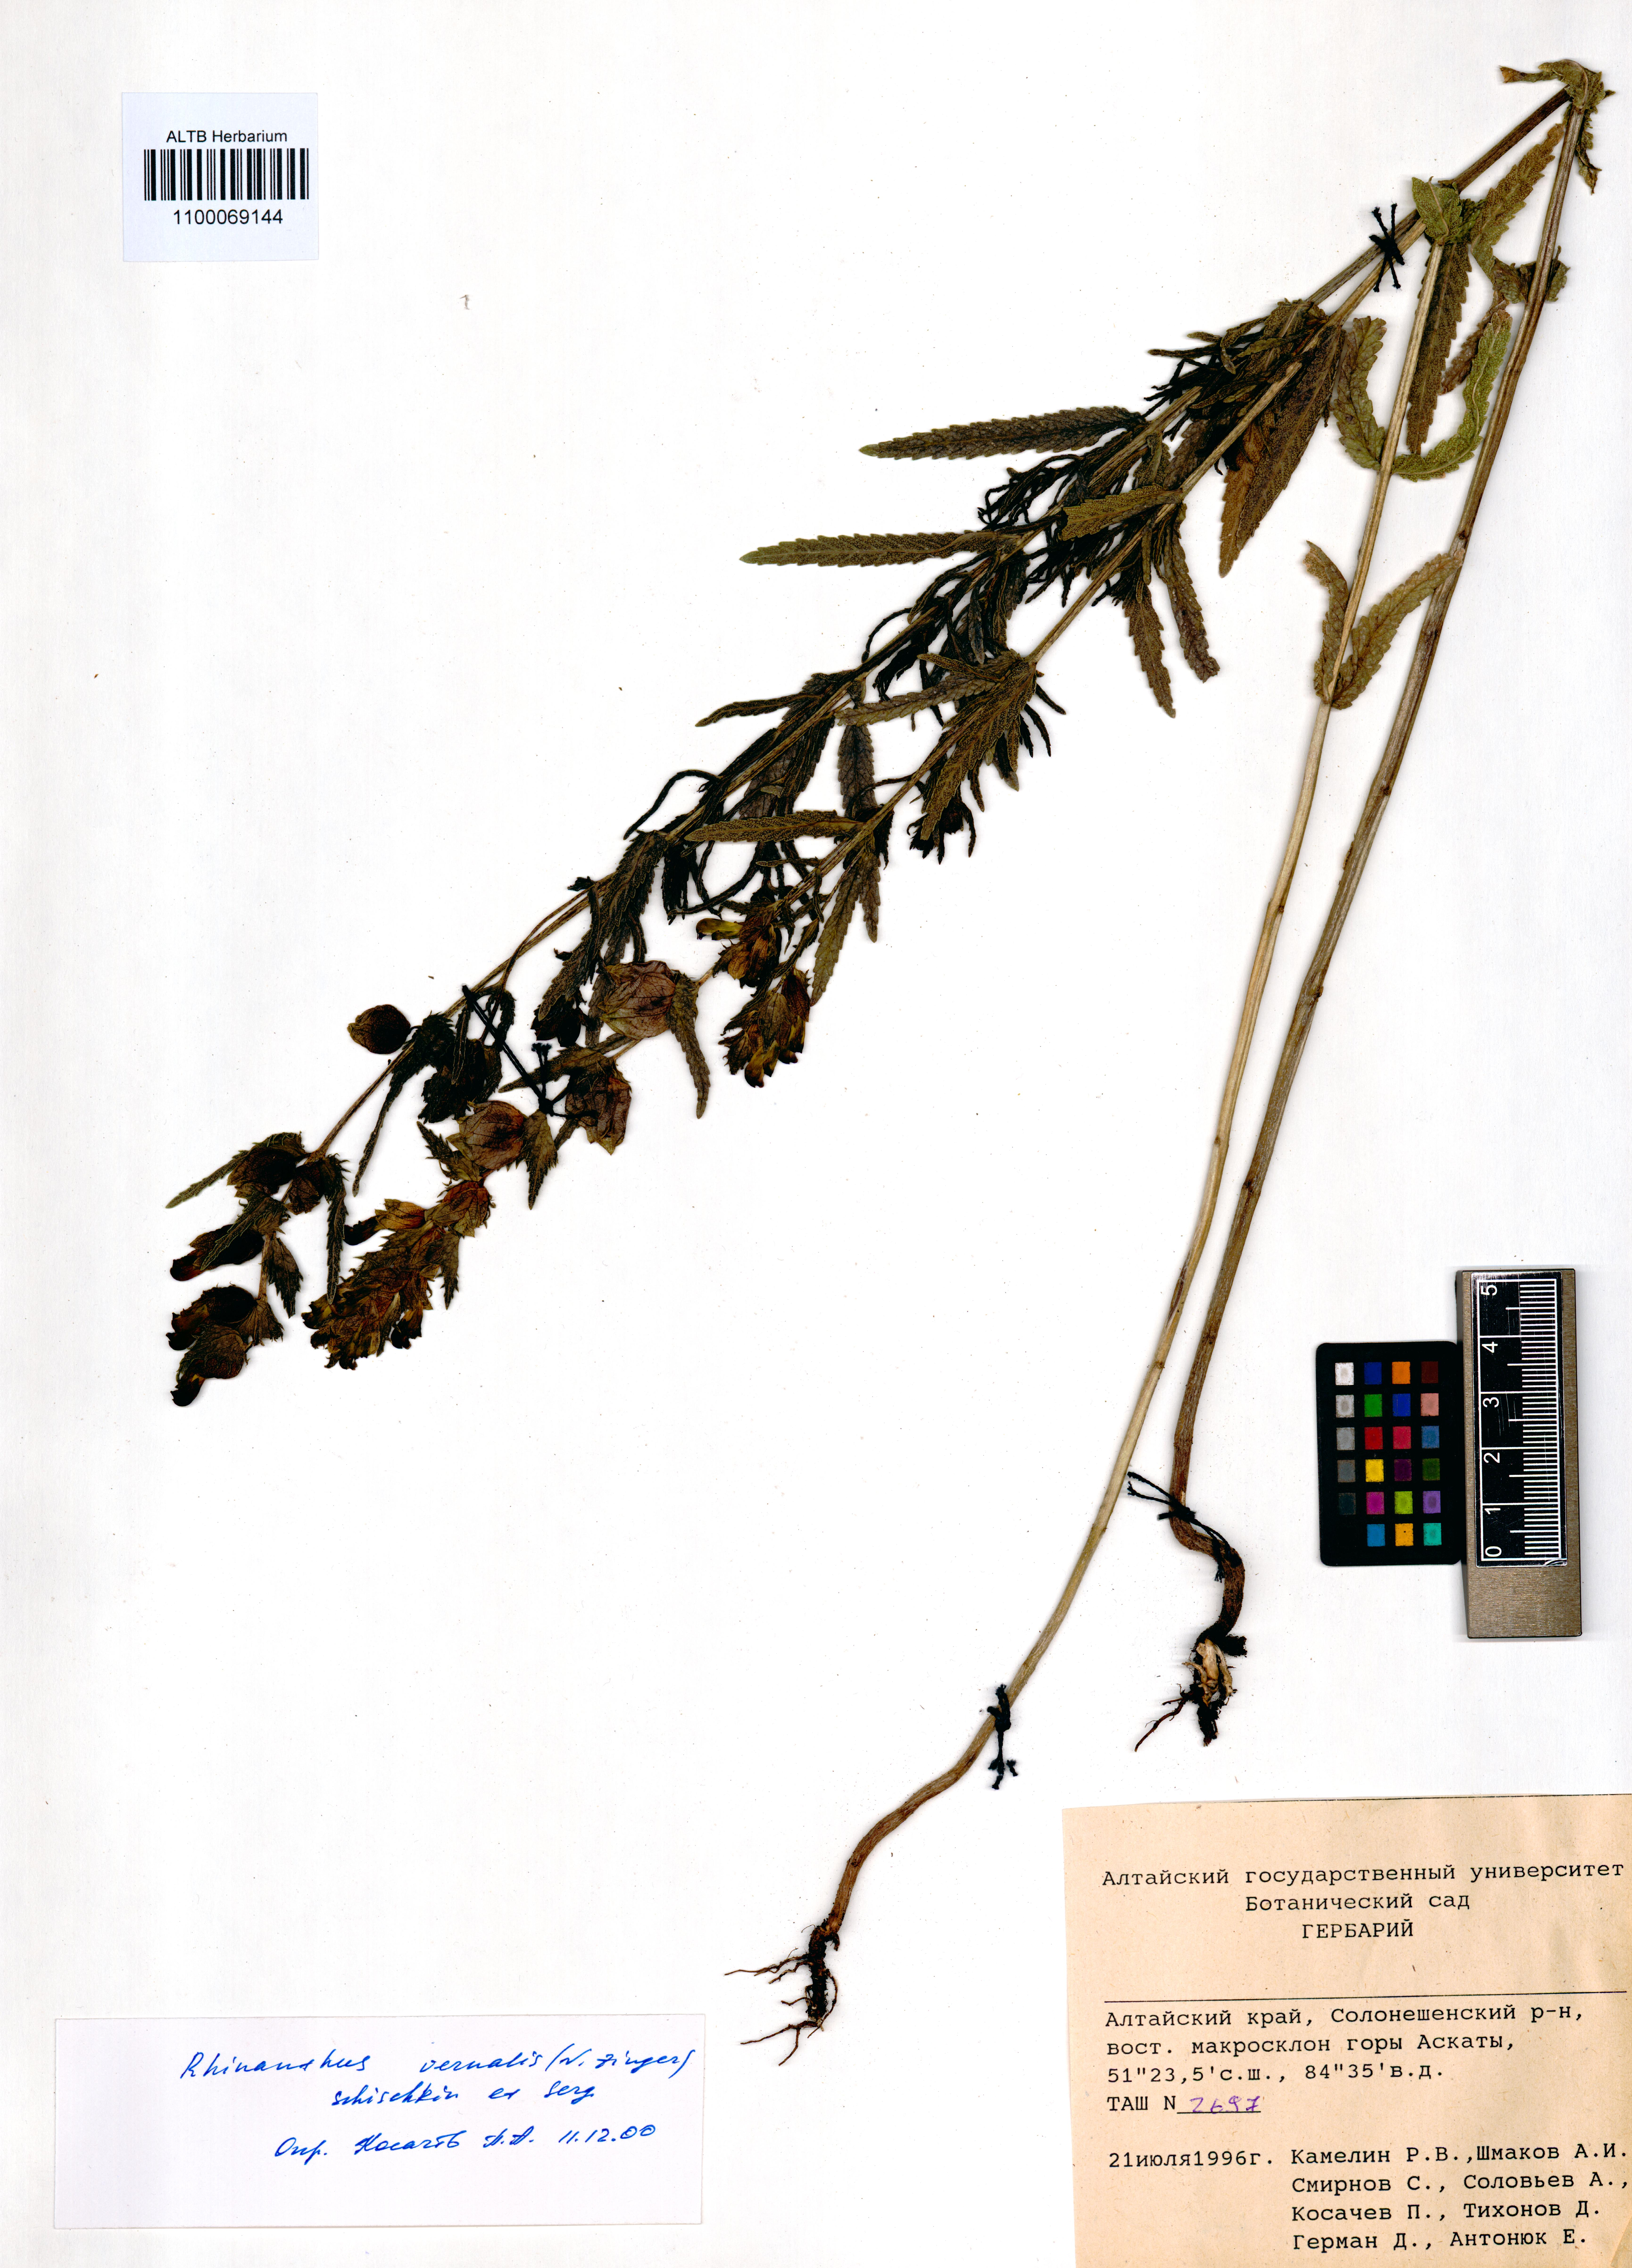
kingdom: Plantae
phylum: Tracheophyta
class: Magnoliopsida
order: Lamiales
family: Orobanchaceae
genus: Rhinanthus
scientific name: Rhinanthus serotinus
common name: Late-flowering yellow rattle
